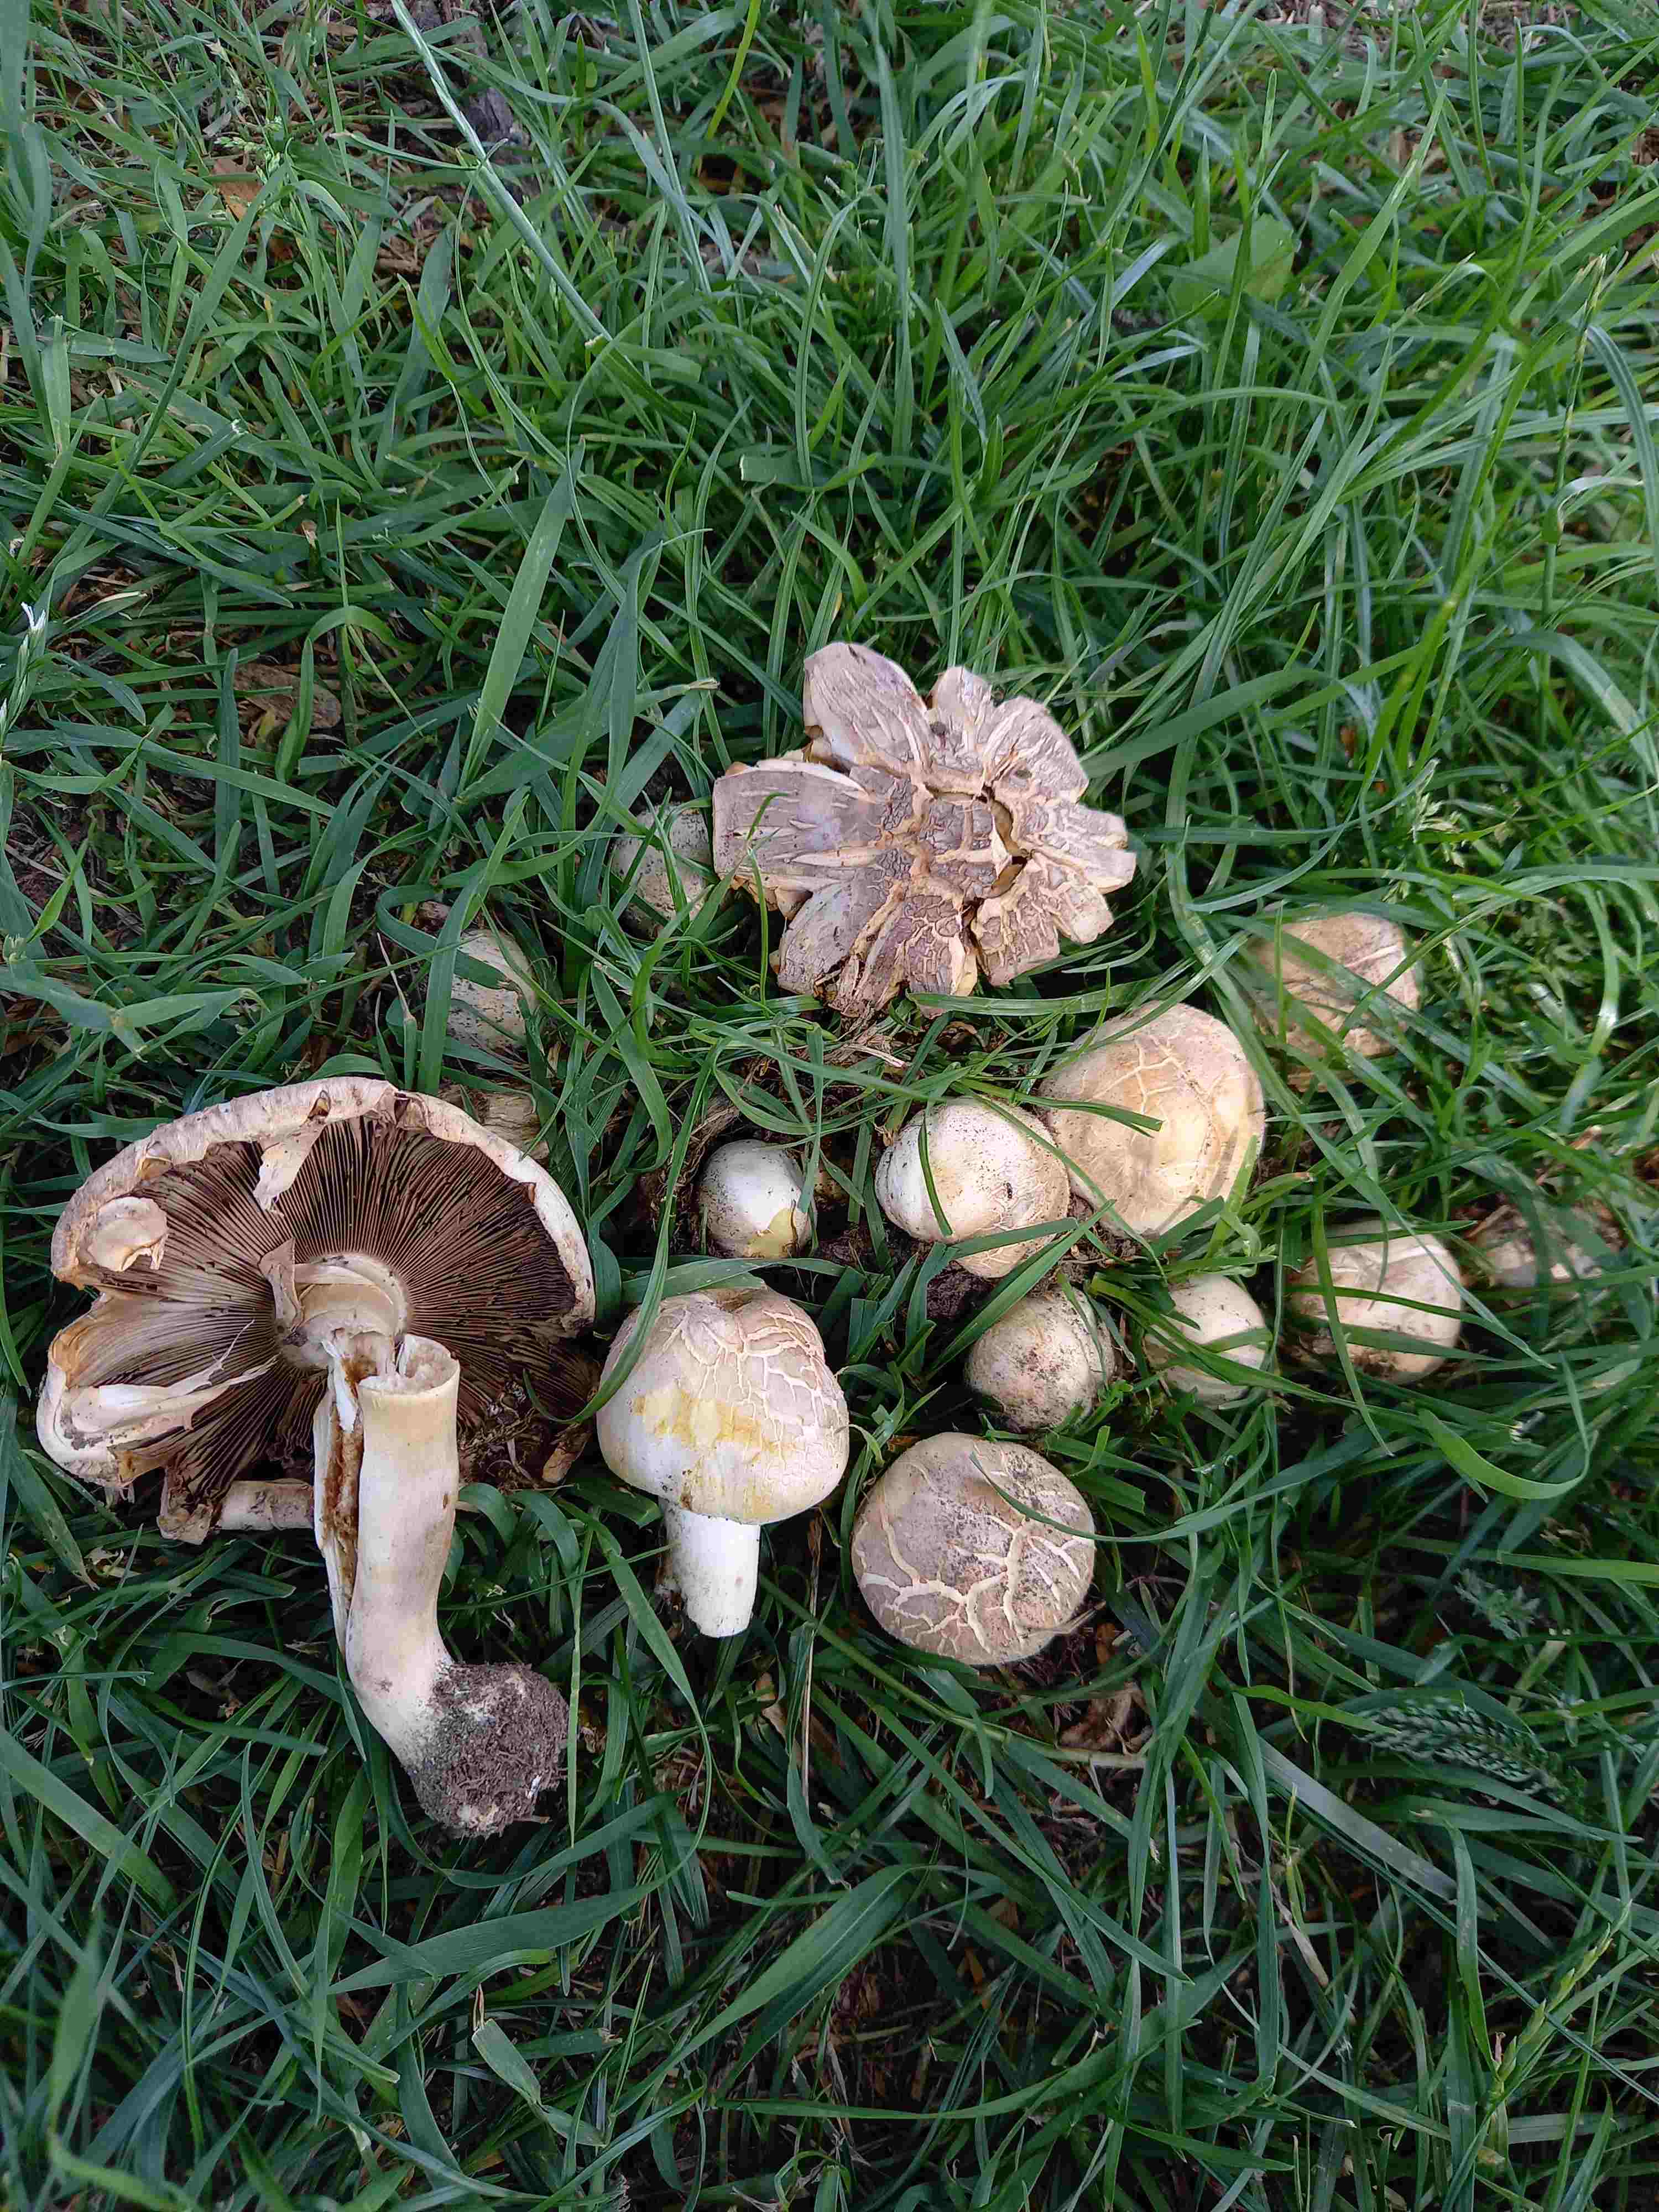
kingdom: Fungi
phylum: Basidiomycota
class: Agaricomycetes
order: Agaricales
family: Agaricaceae
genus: Agaricus
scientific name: Agaricus xanthodermus
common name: karbol-champignon
